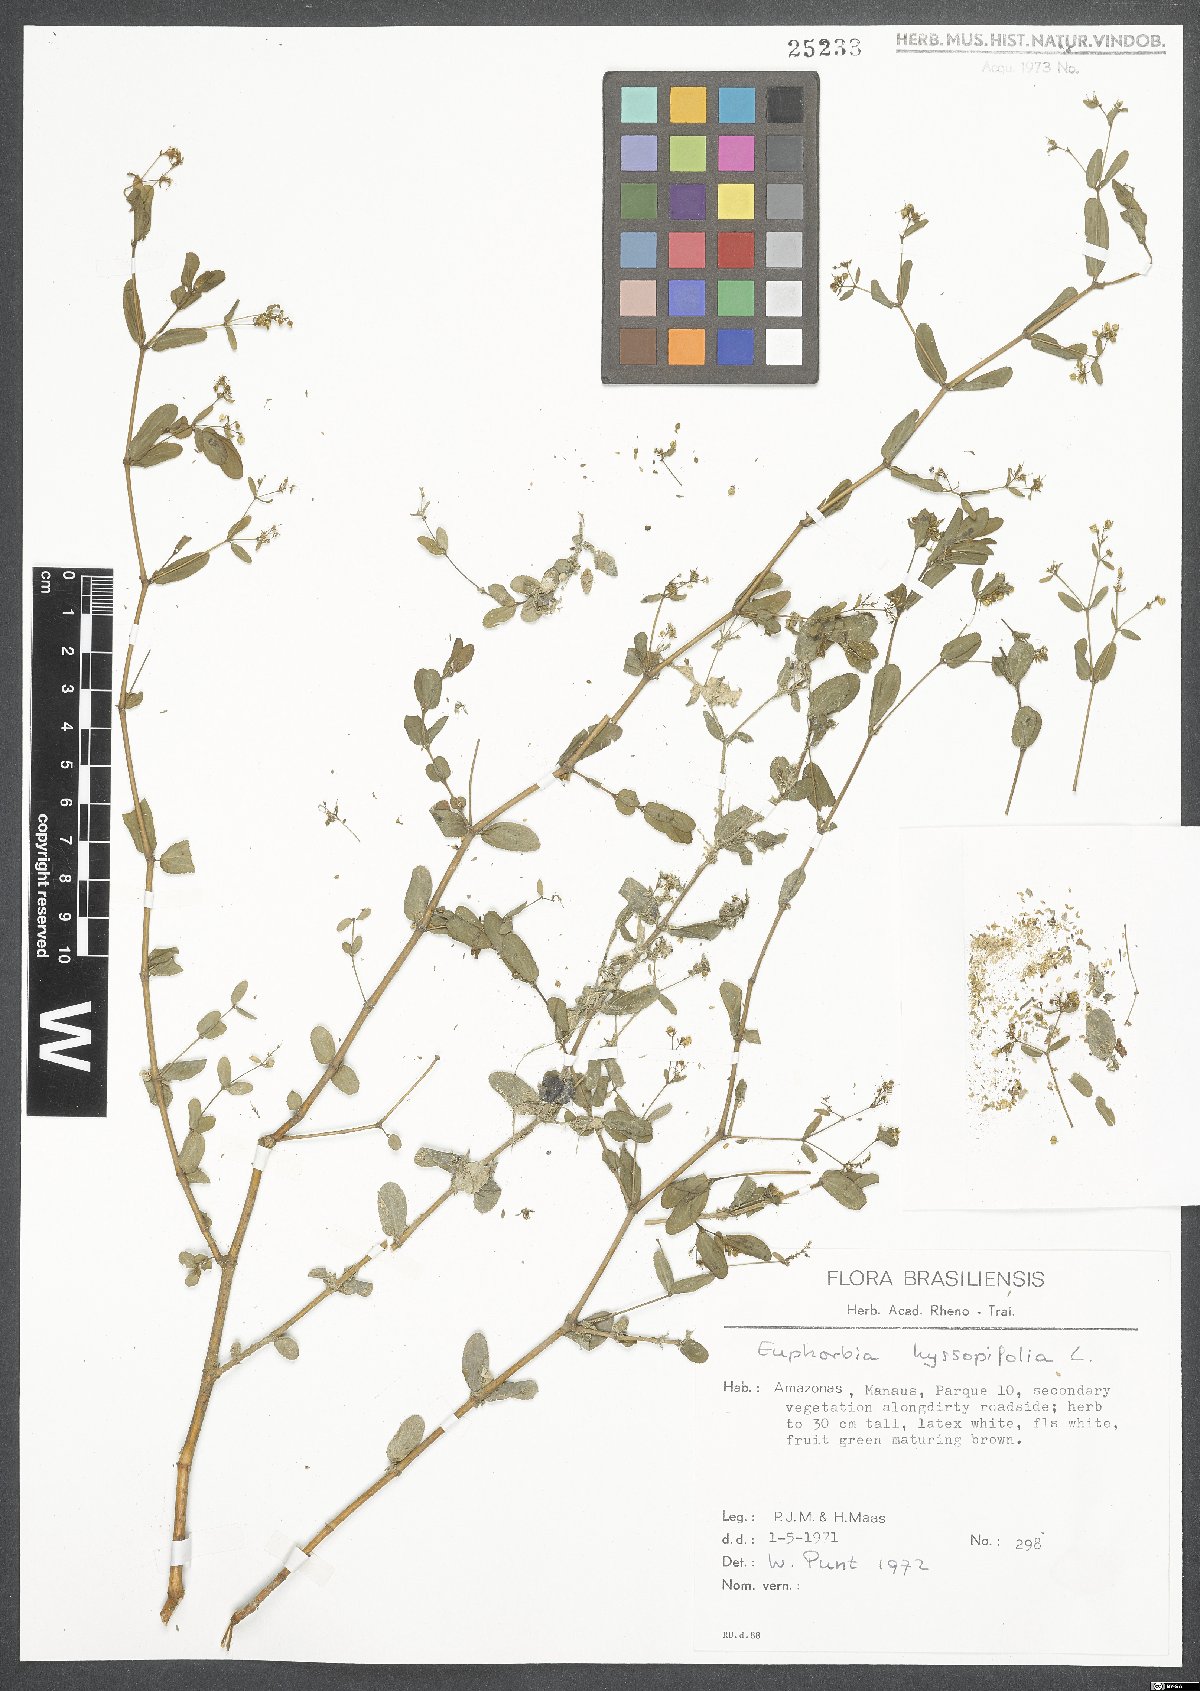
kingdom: Plantae
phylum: Tracheophyta
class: Magnoliopsida
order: Malpighiales
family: Euphorbiaceae
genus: Euphorbia
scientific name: Euphorbia hyssopifolia
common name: Hyssopleaf sandmat
